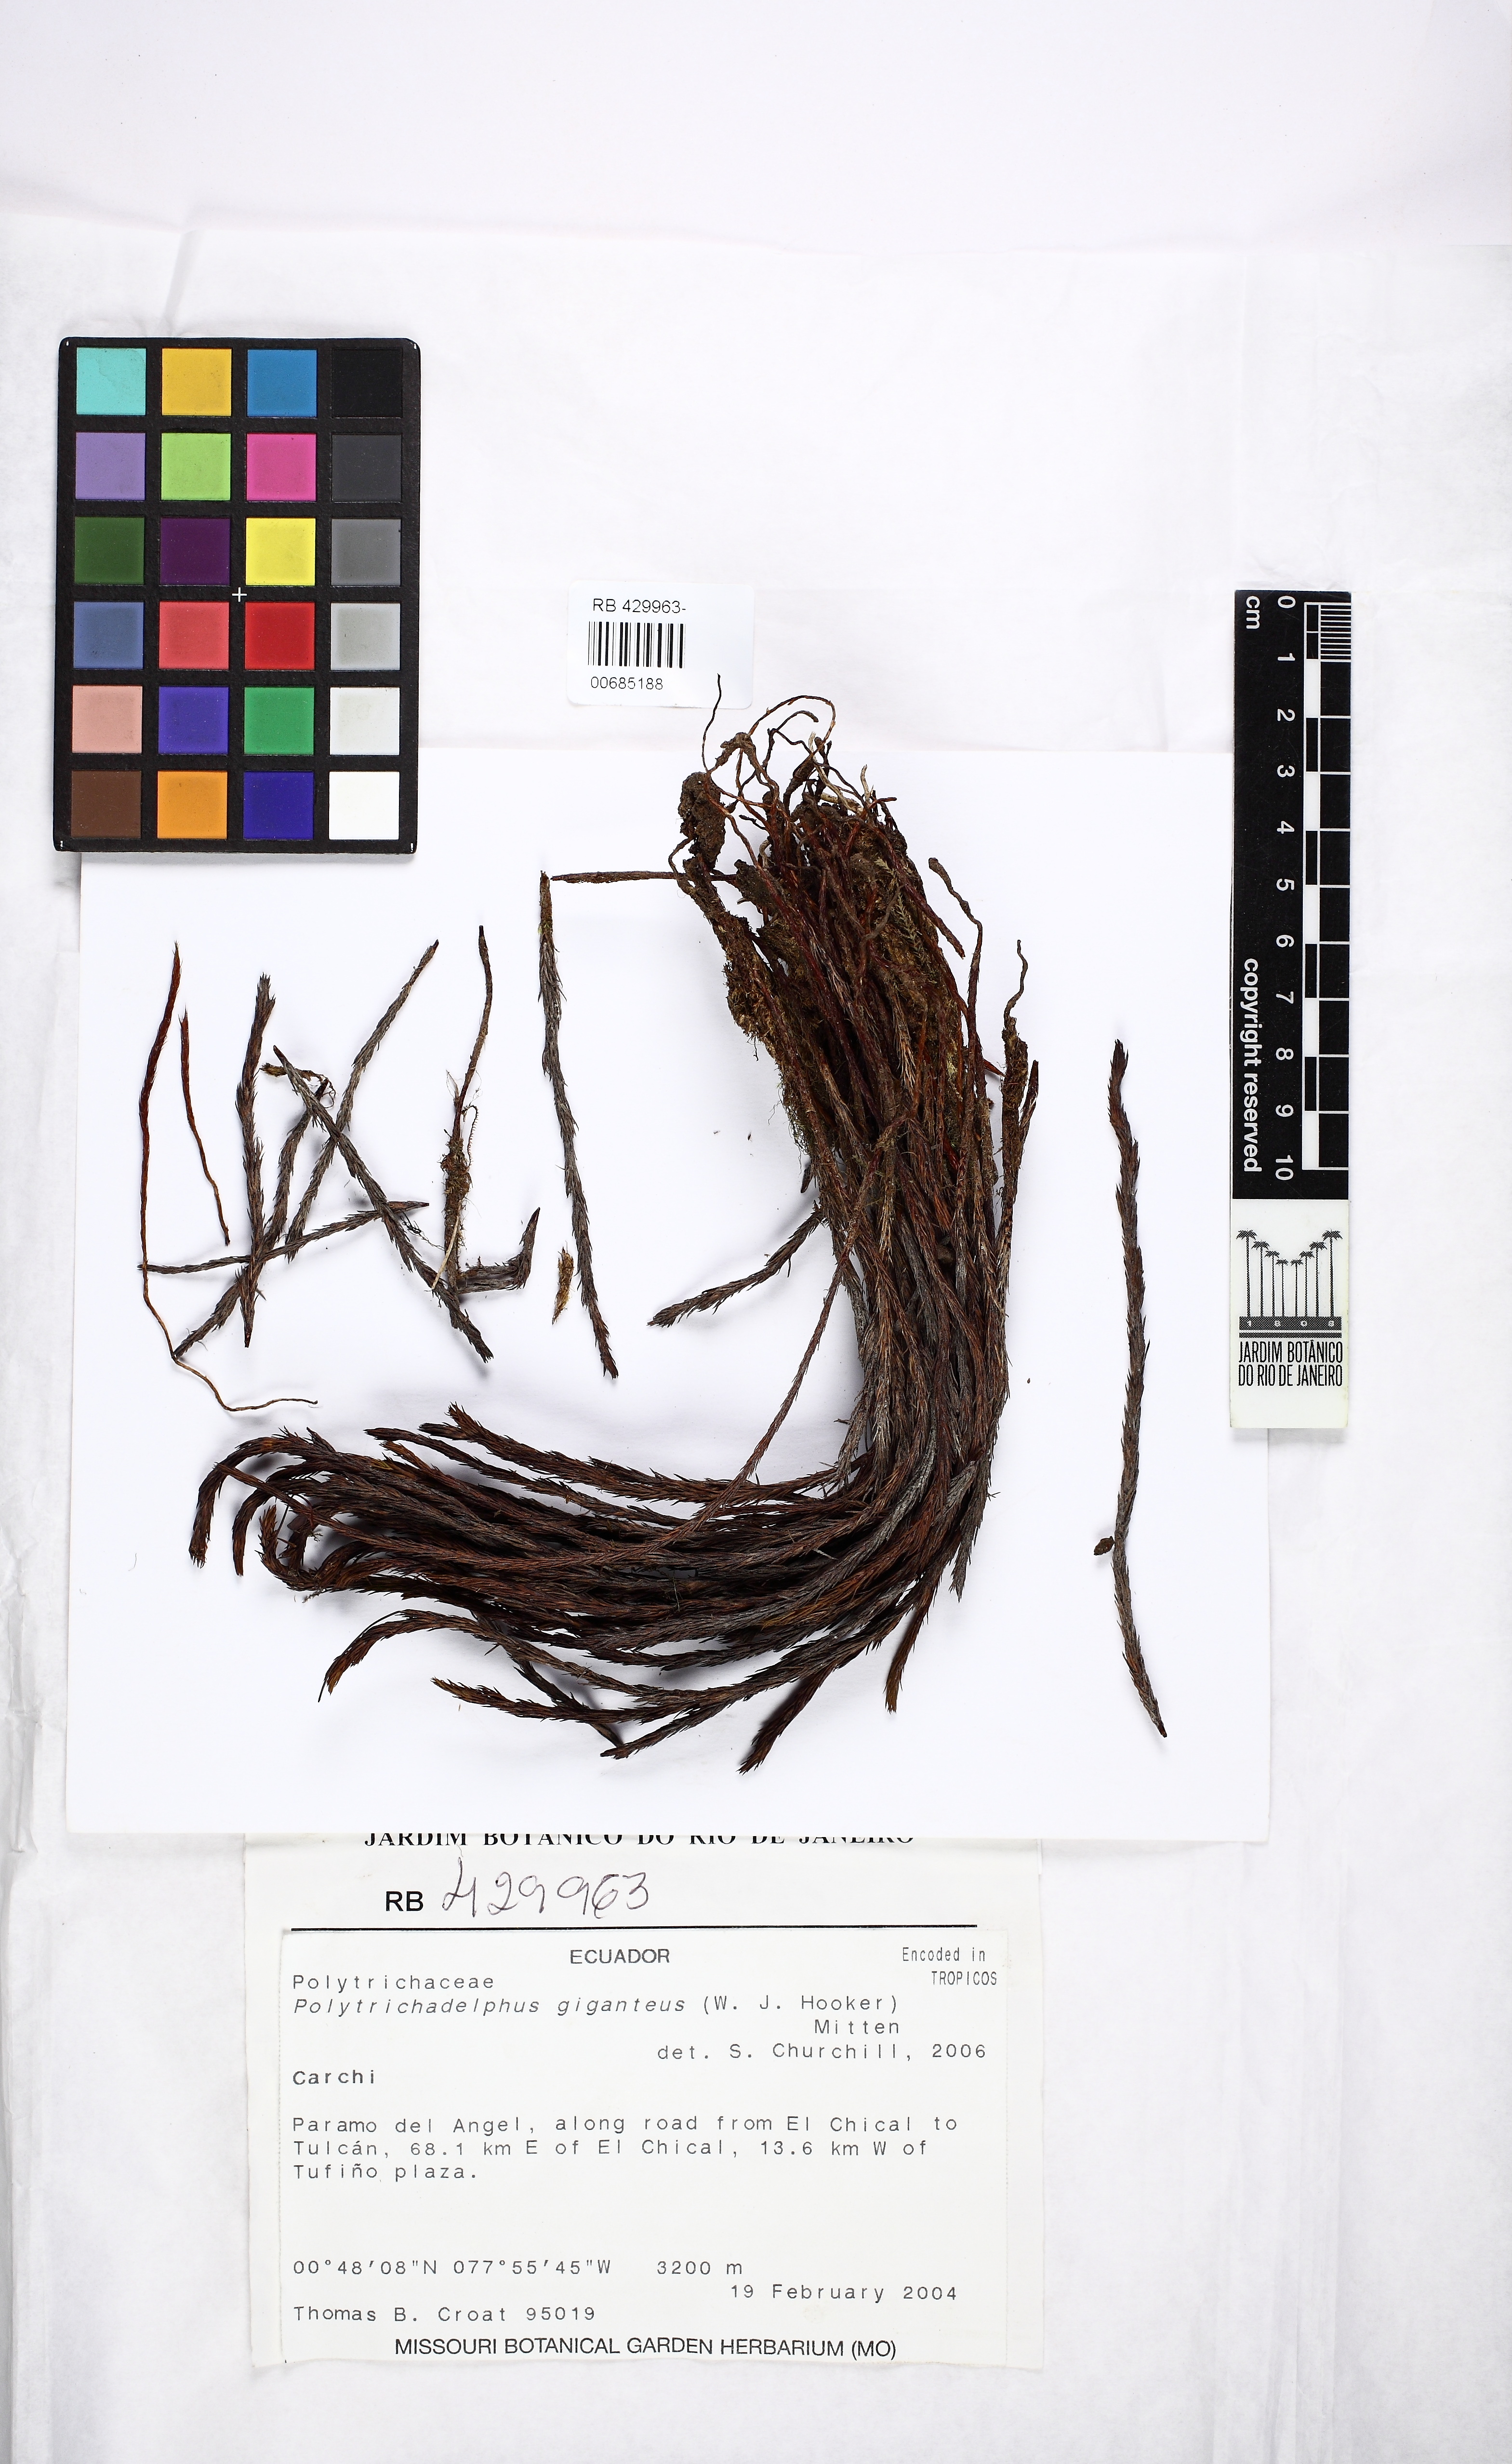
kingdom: Plantae
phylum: Bryophyta
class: Polytrichopsida
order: Polytrichales
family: Polytrichaceae
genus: Polytrichadelphus
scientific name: Polytrichadelphus giganteus
